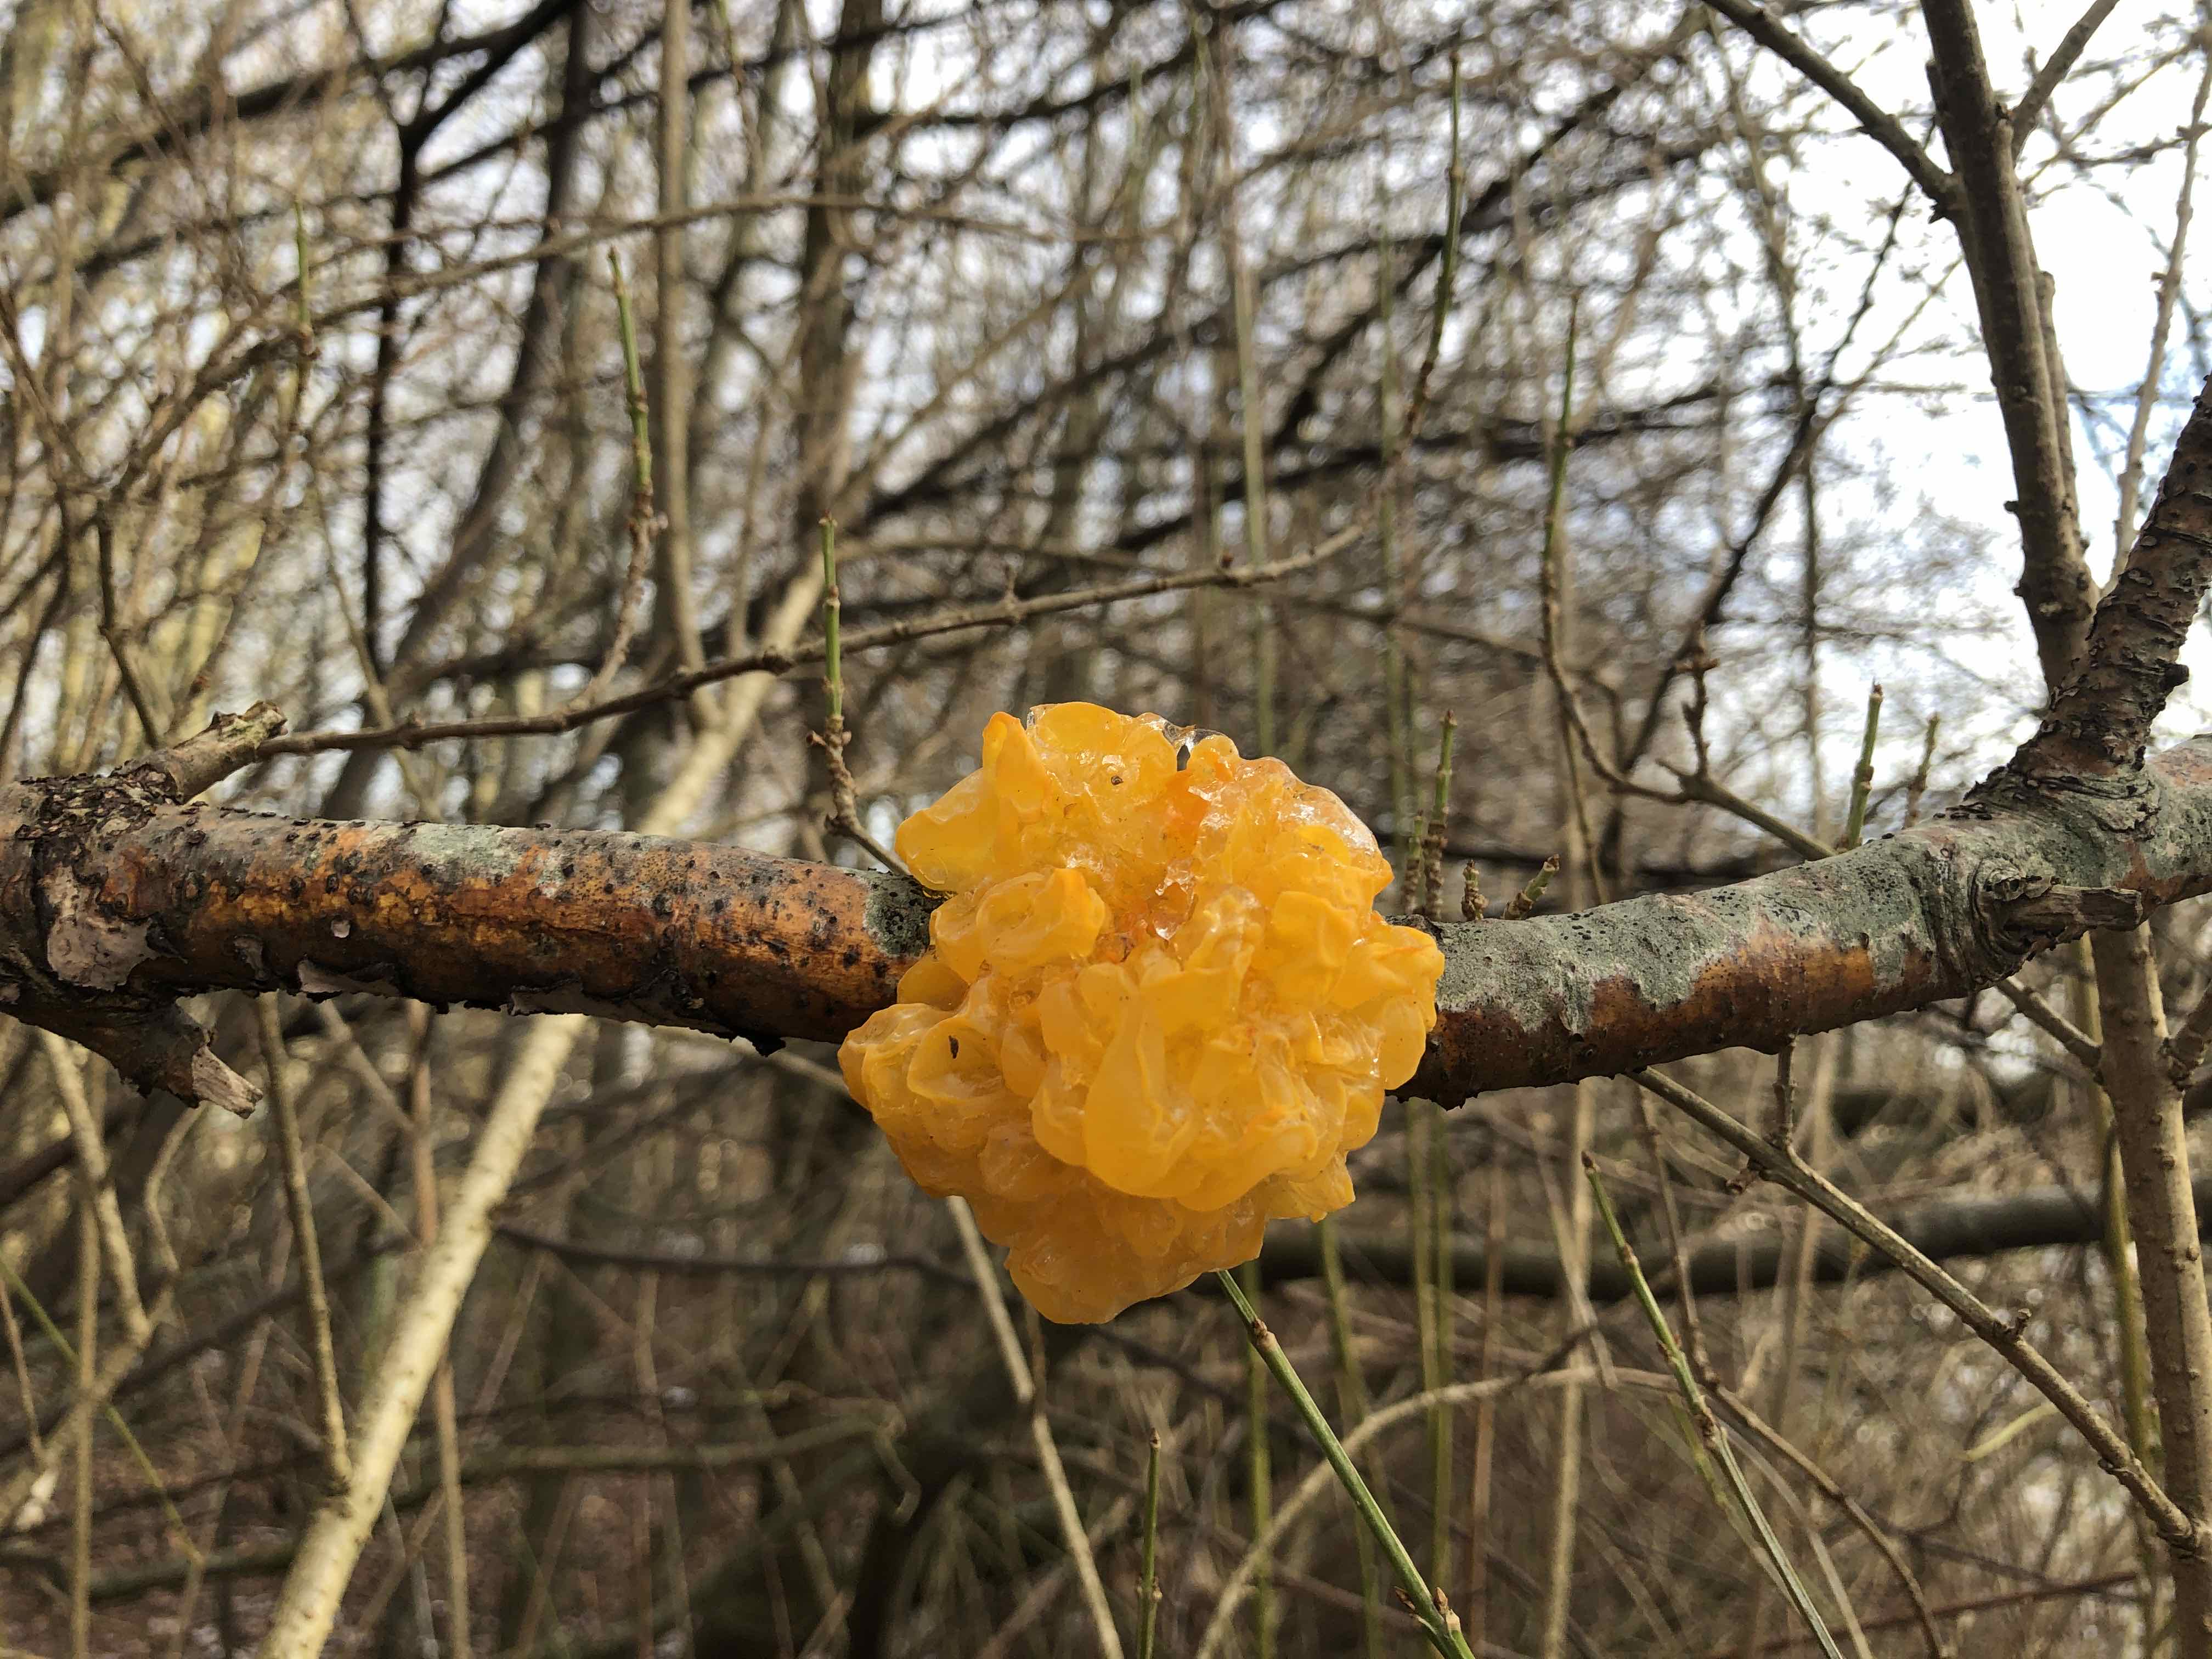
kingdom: Fungi
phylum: Basidiomycota
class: Tremellomycetes
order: Tremellales
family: Tremellaceae
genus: Tremella
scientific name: Tremella mesenterica
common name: gul bævresvamp
